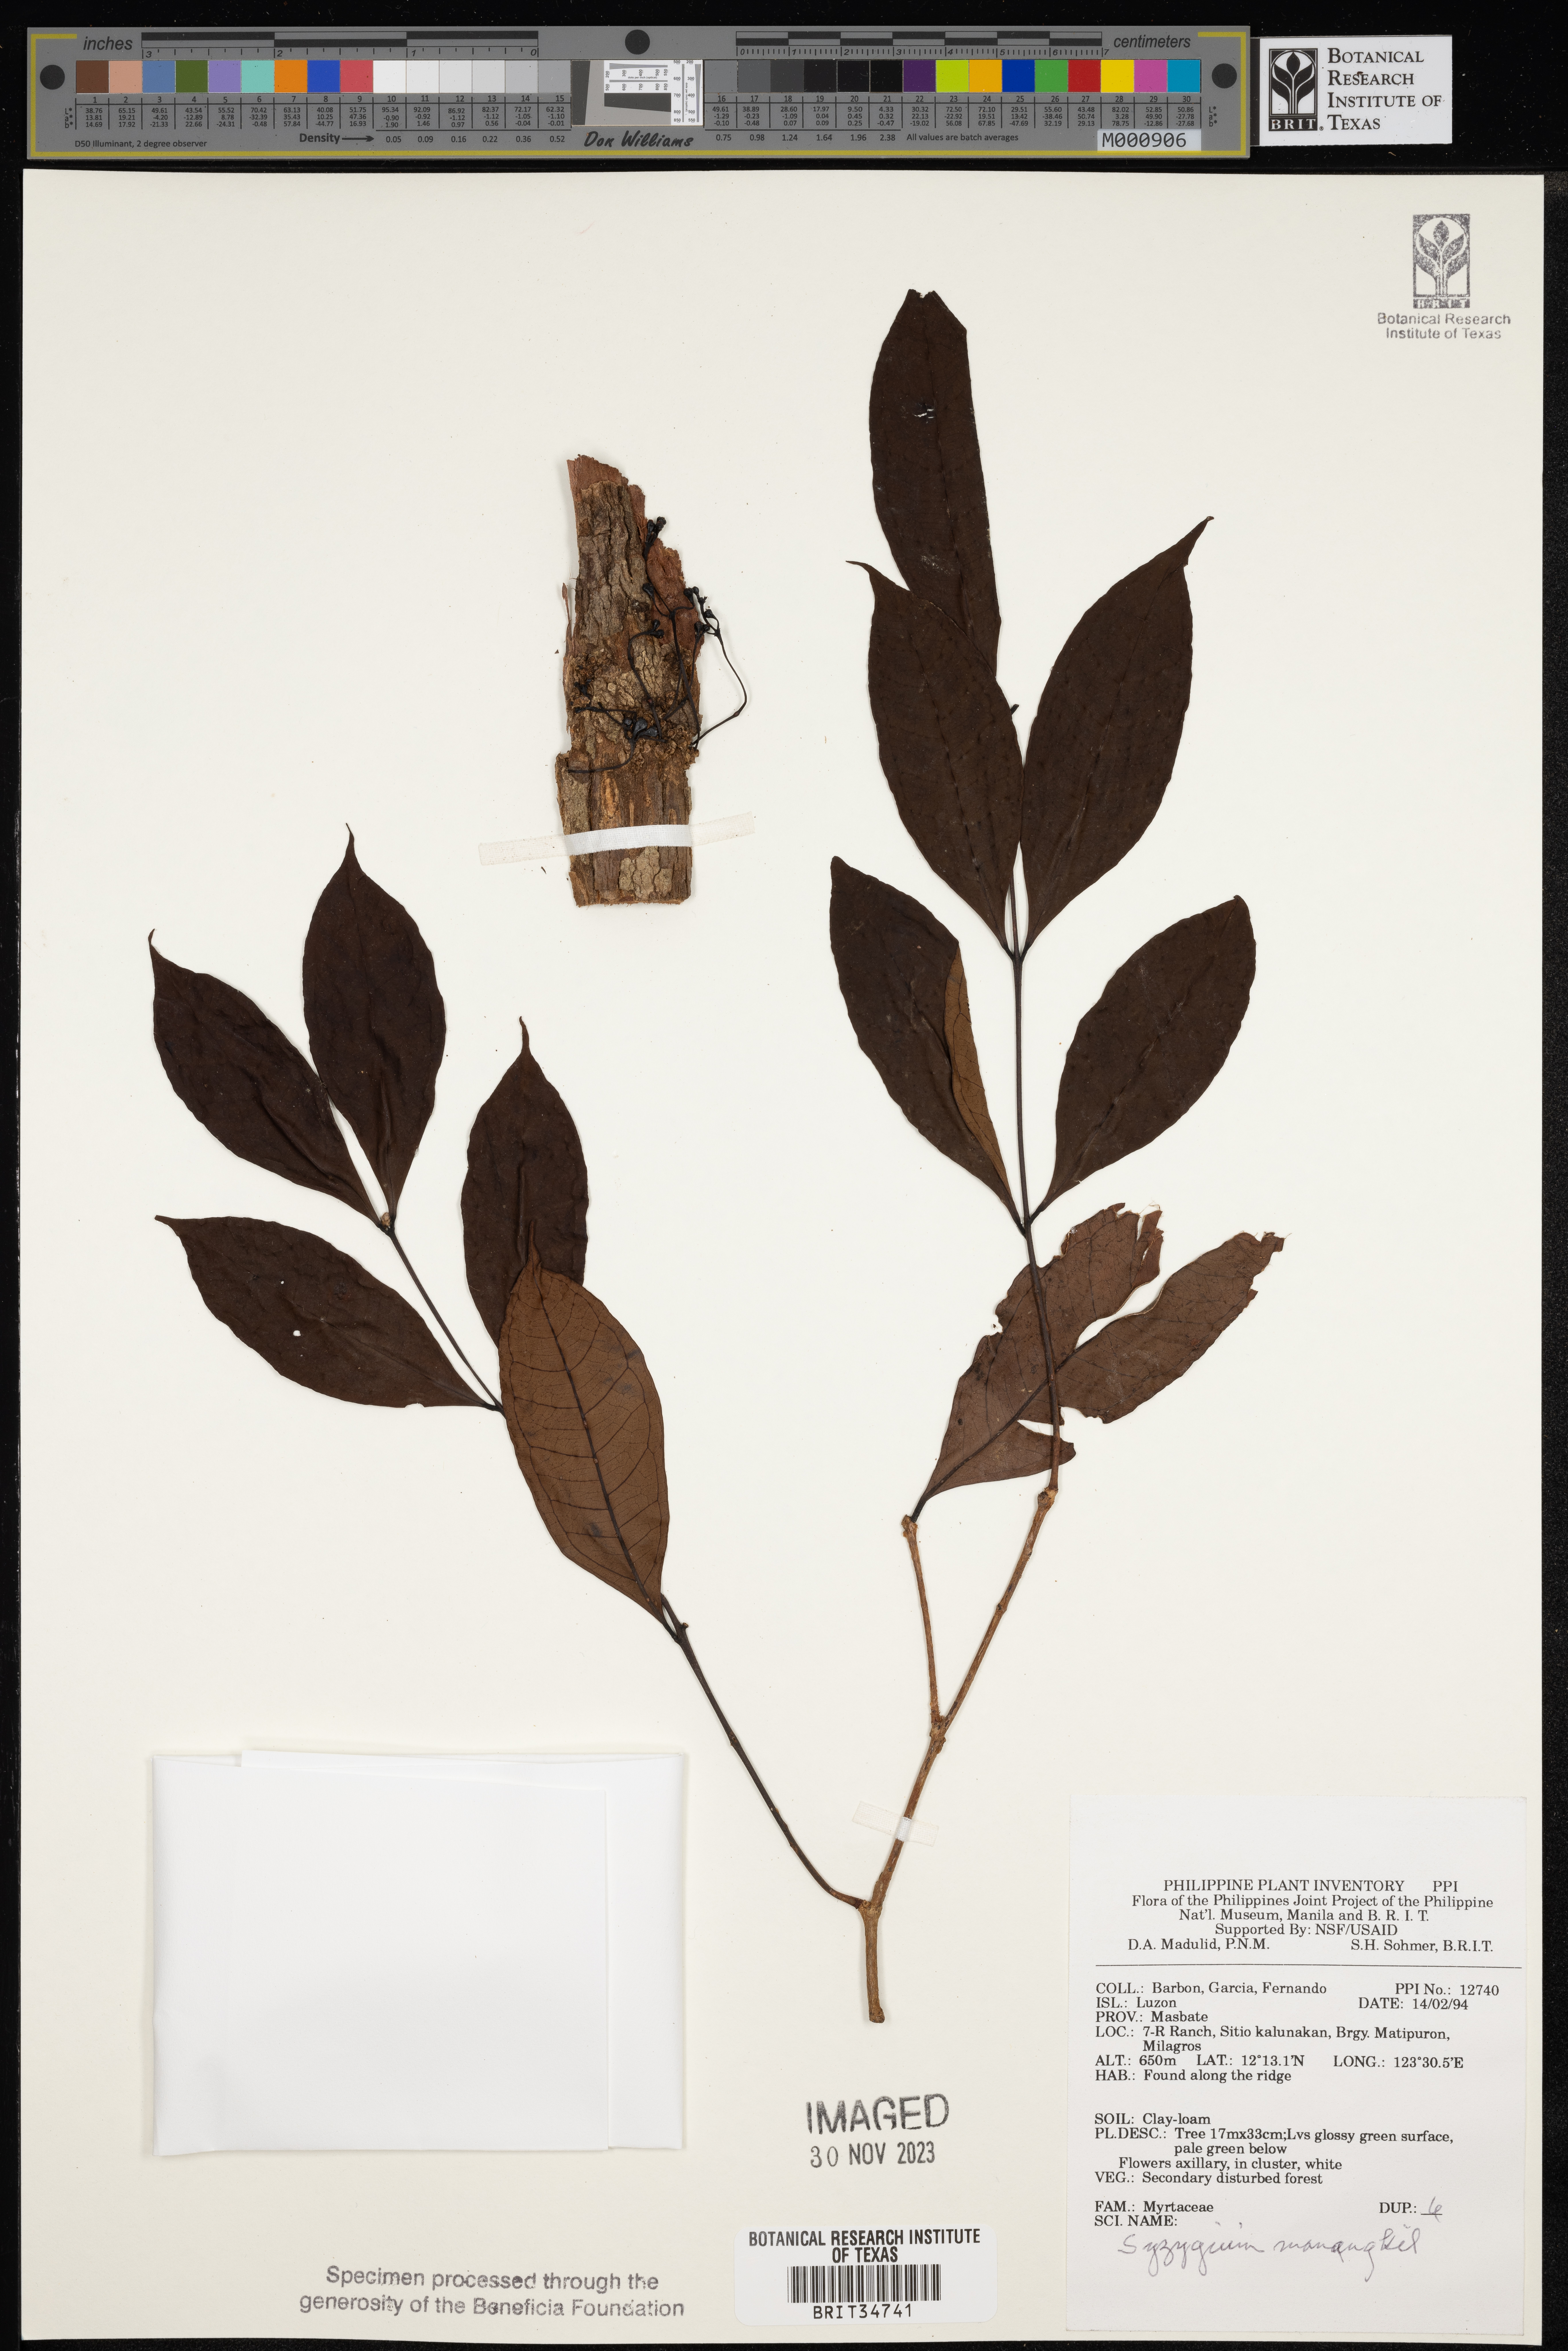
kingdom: Plantae
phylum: Tracheophyta
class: Magnoliopsida
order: Myrtales
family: Myrtaceae
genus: Syzygium
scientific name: Syzygium mananquil
